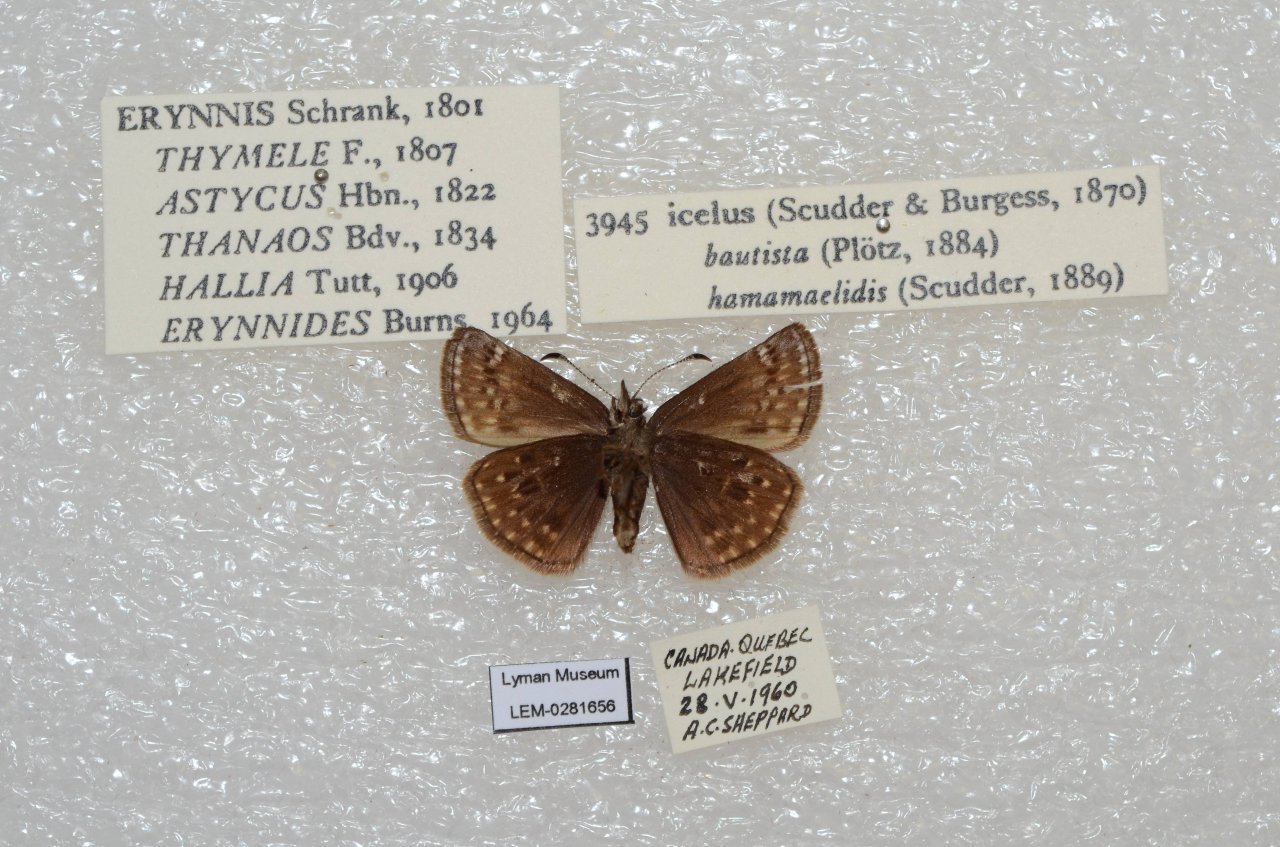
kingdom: Animalia
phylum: Arthropoda
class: Insecta
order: Lepidoptera
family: Hesperiidae
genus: Erynnis
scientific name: Erynnis icelus
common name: Dreamy Duskywing
